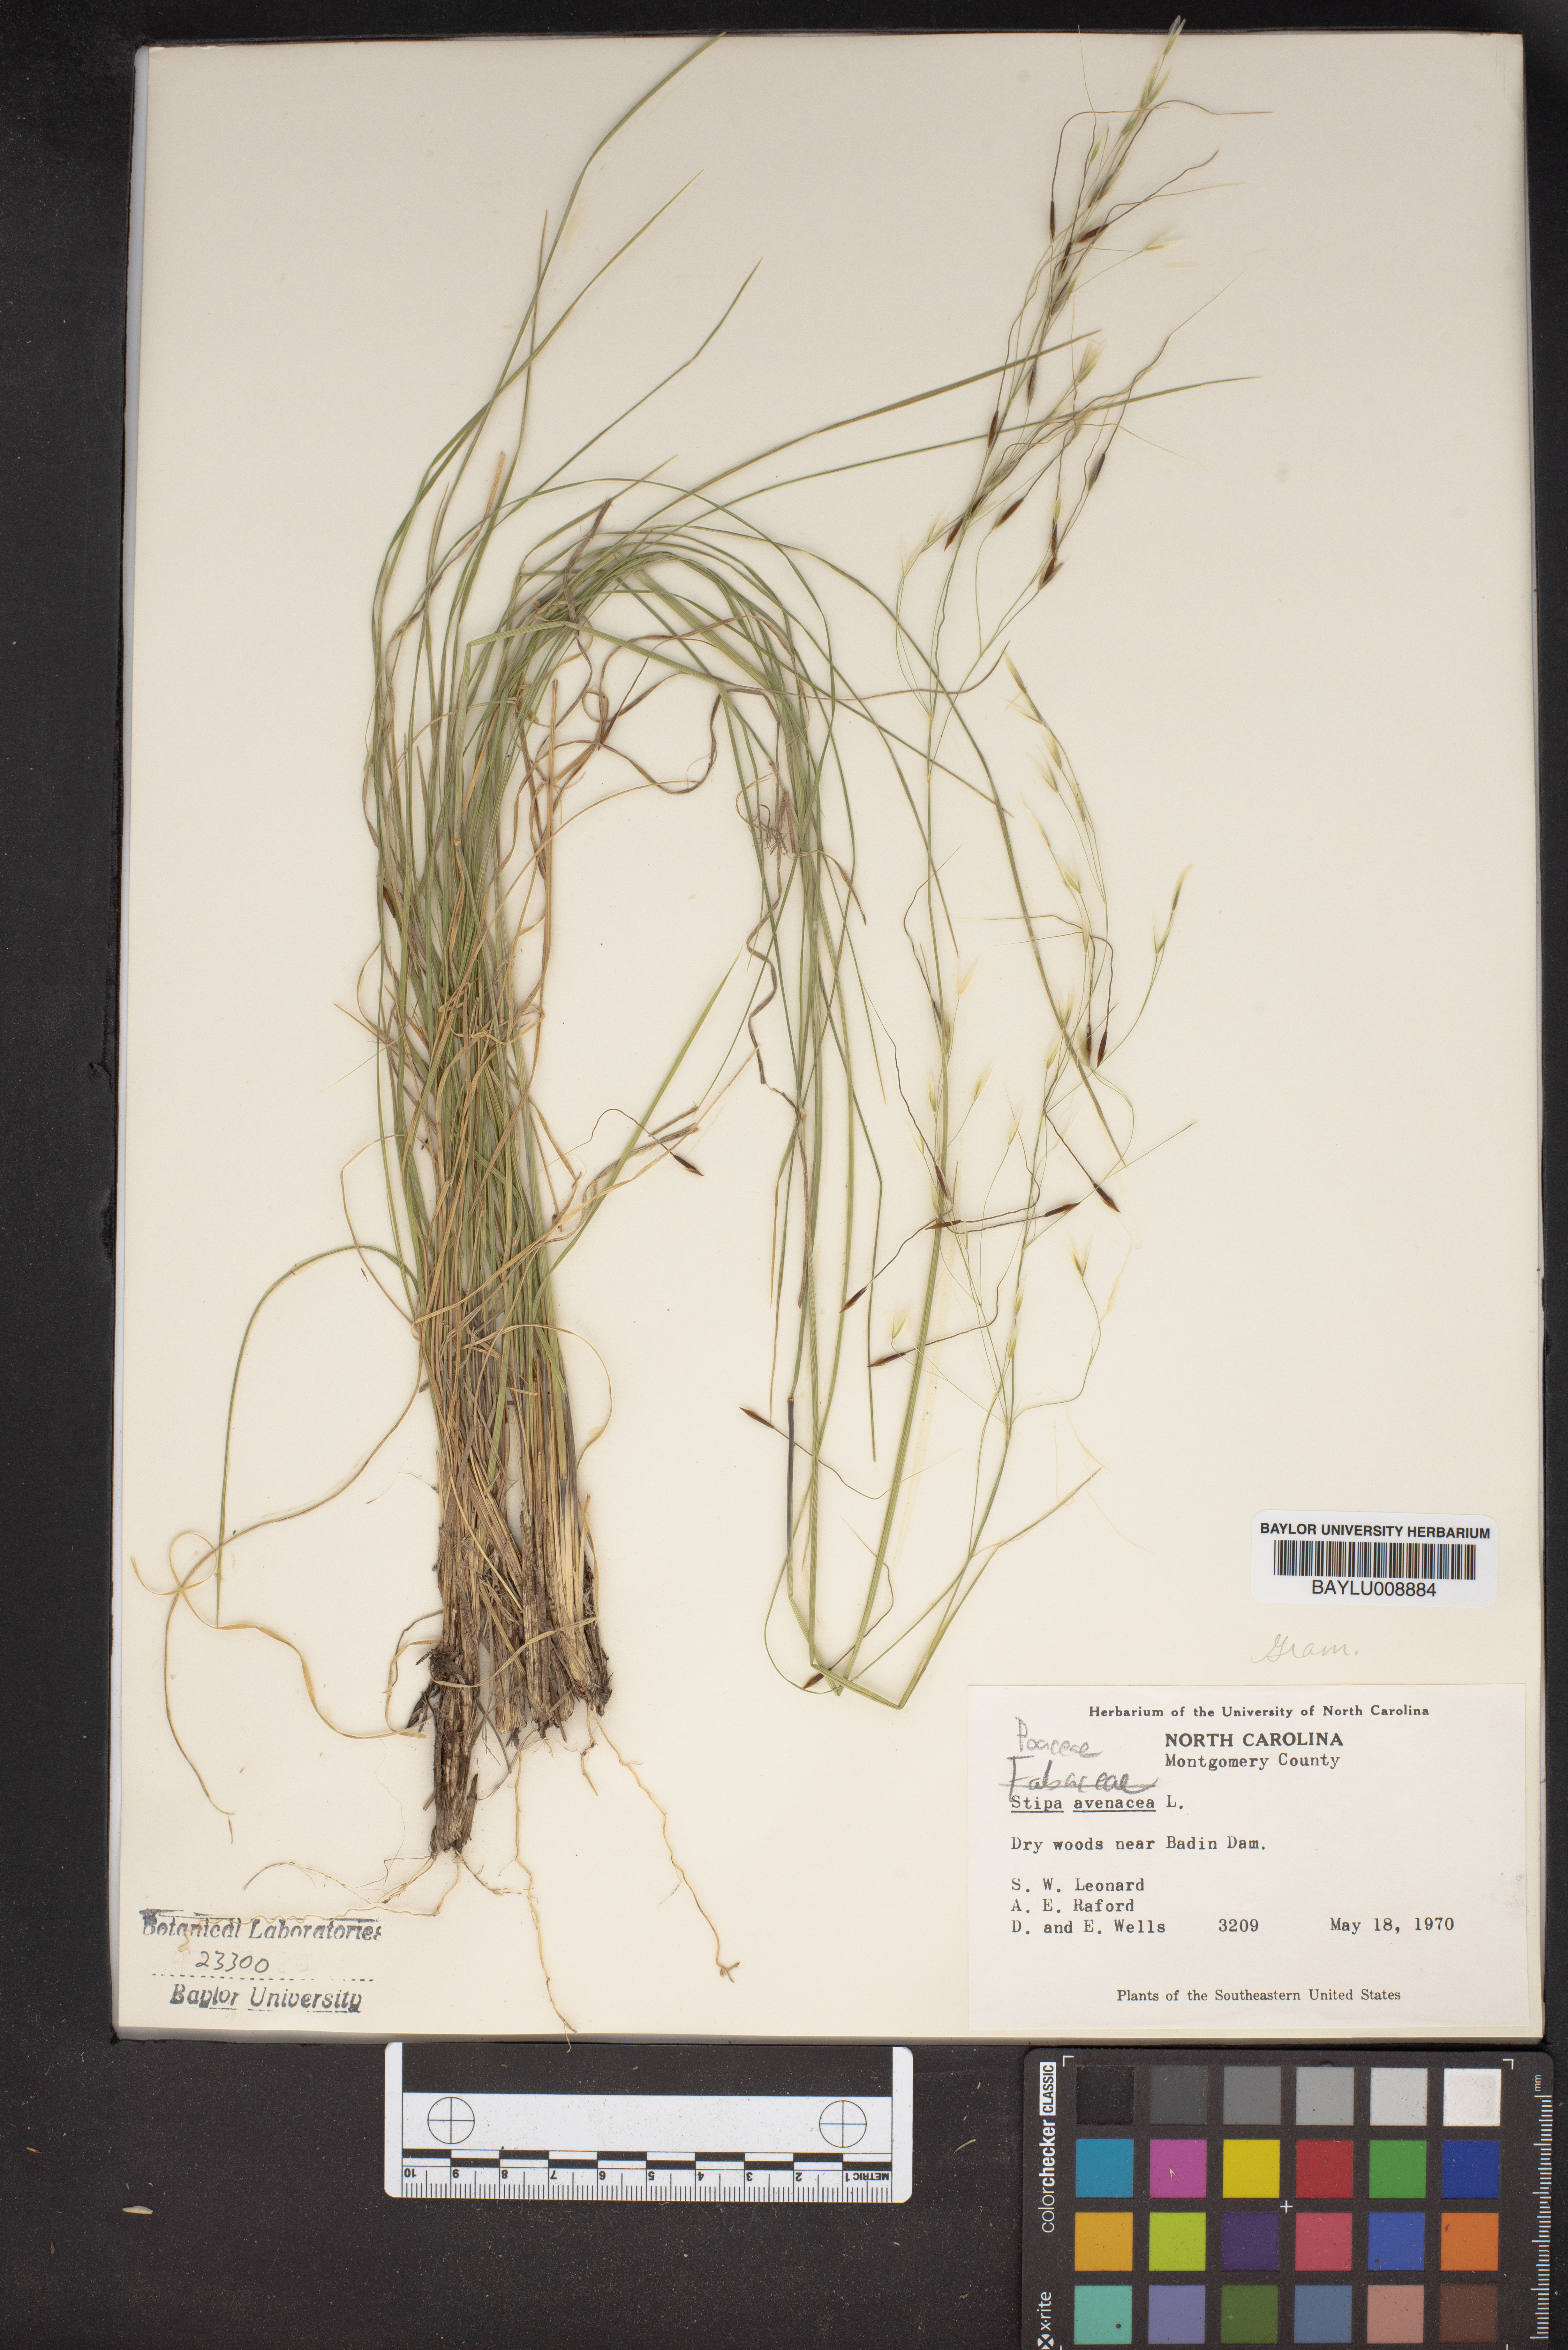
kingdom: Plantae
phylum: Tracheophyta
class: Liliopsida
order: Poales
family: Poaceae
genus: Piptochaetium
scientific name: Piptochaetium avenaceum
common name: Black bunchgrass
